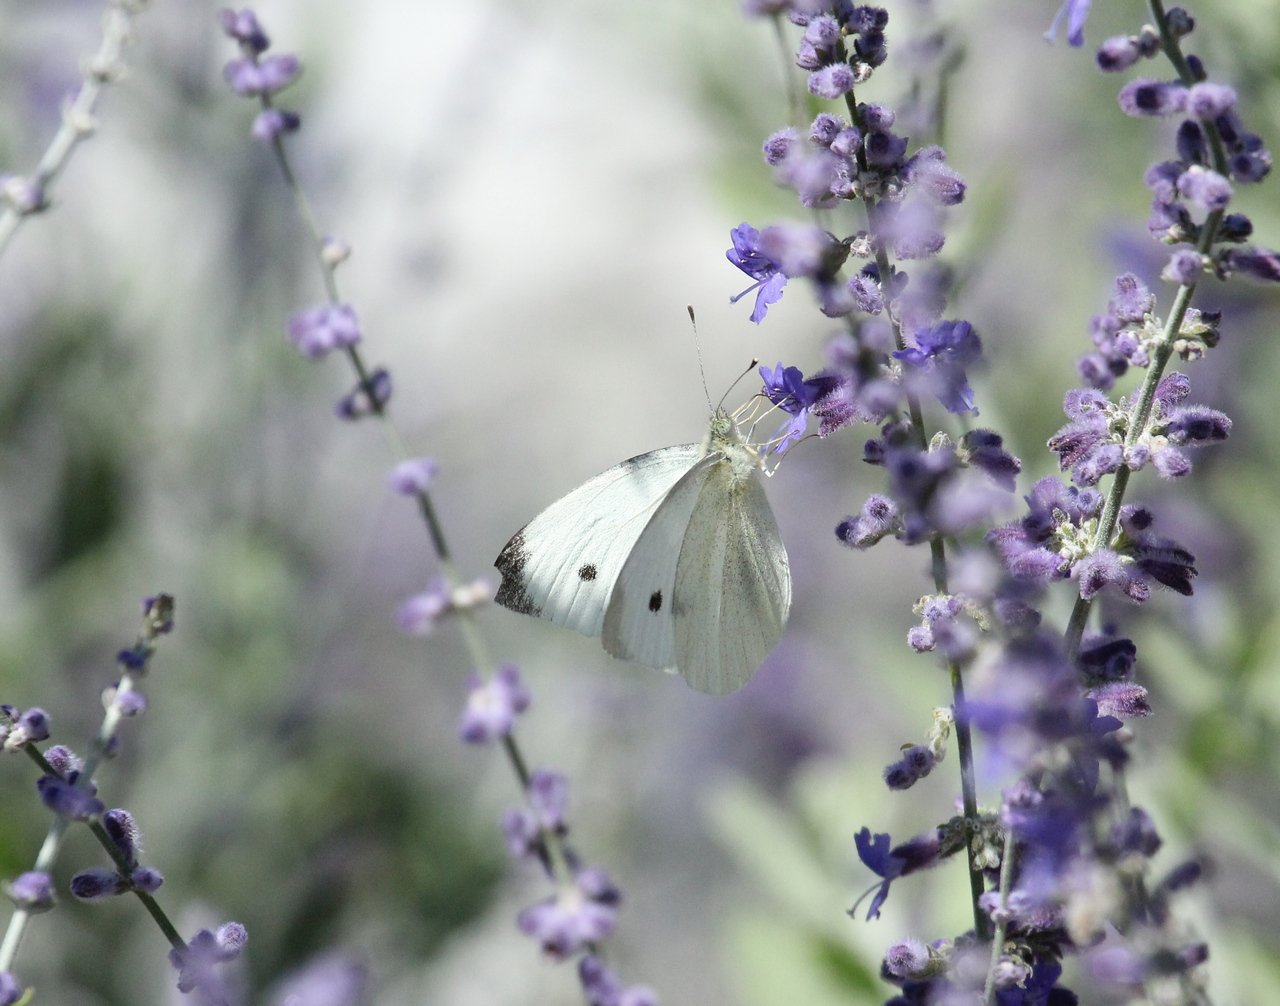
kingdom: Animalia
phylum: Arthropoda
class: Insecta
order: Lepidoptera
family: Pieridae
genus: Pieris
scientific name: Pieris rapae
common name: Cabbage White
